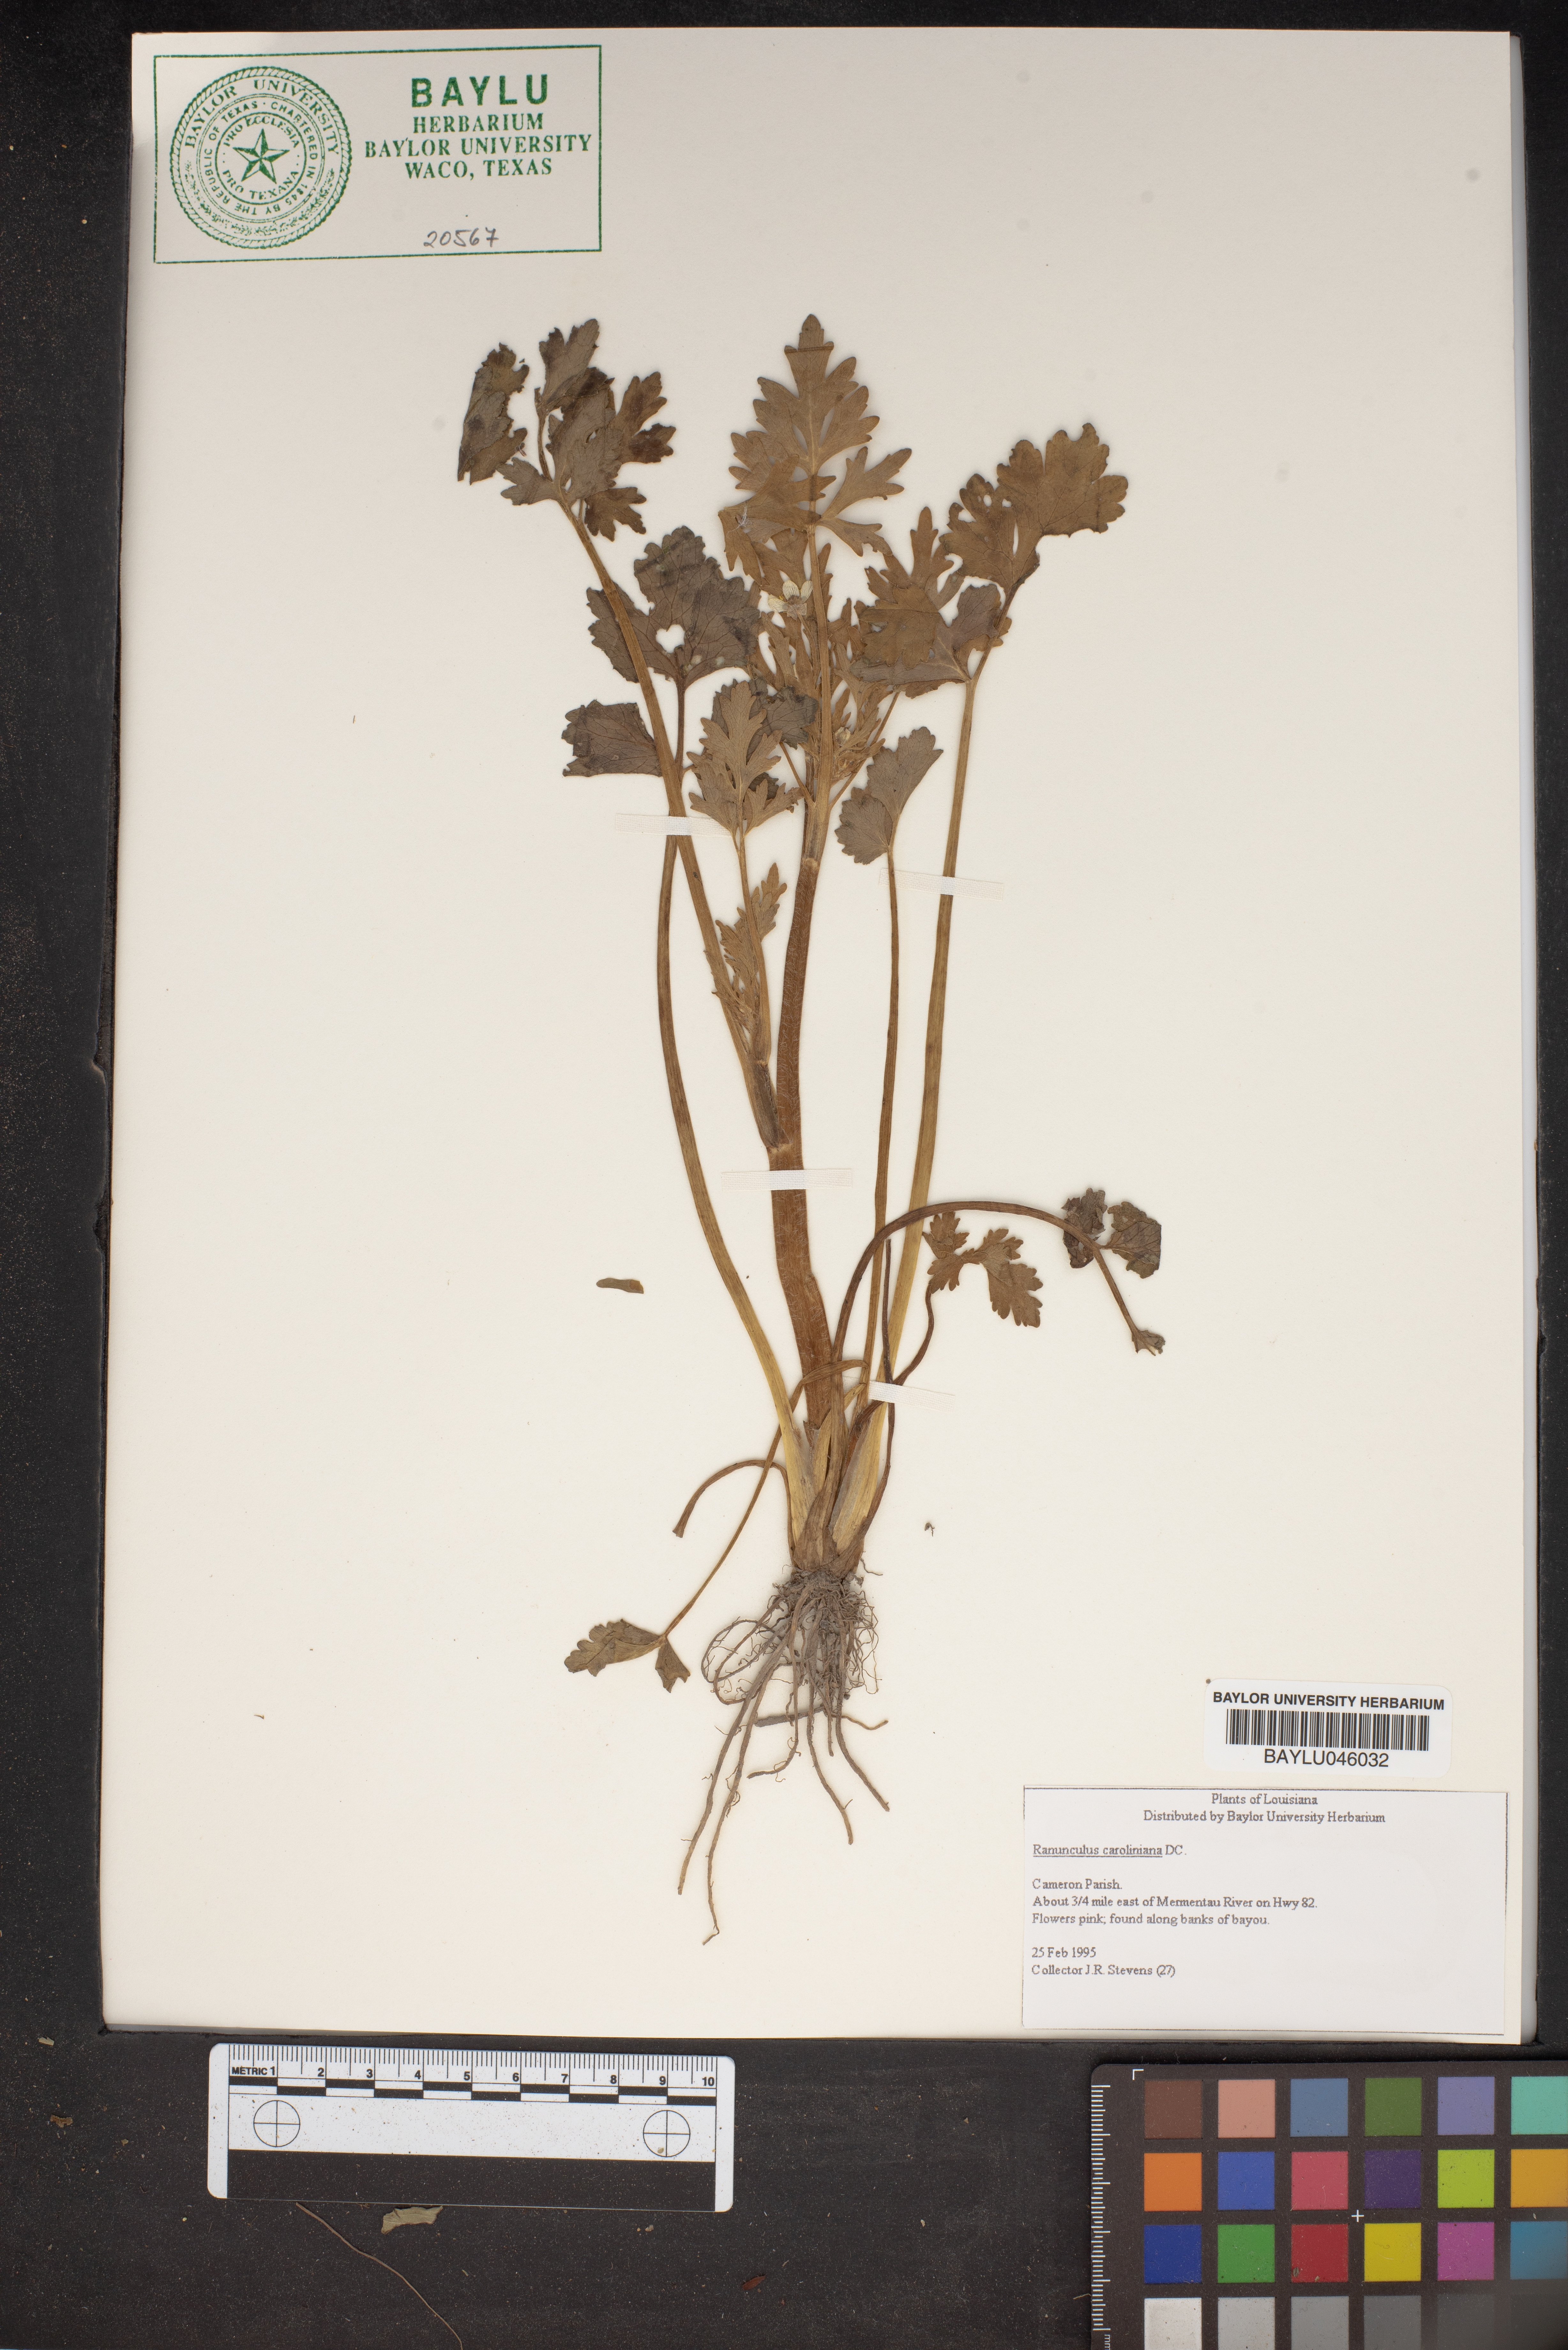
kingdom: Plantae
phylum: Tracheophyta
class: Magnoliopsida
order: Ranunculales
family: Ranunculaceae
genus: Ranunculus
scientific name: Ranunculus hispidus
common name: Bristly buttercup
